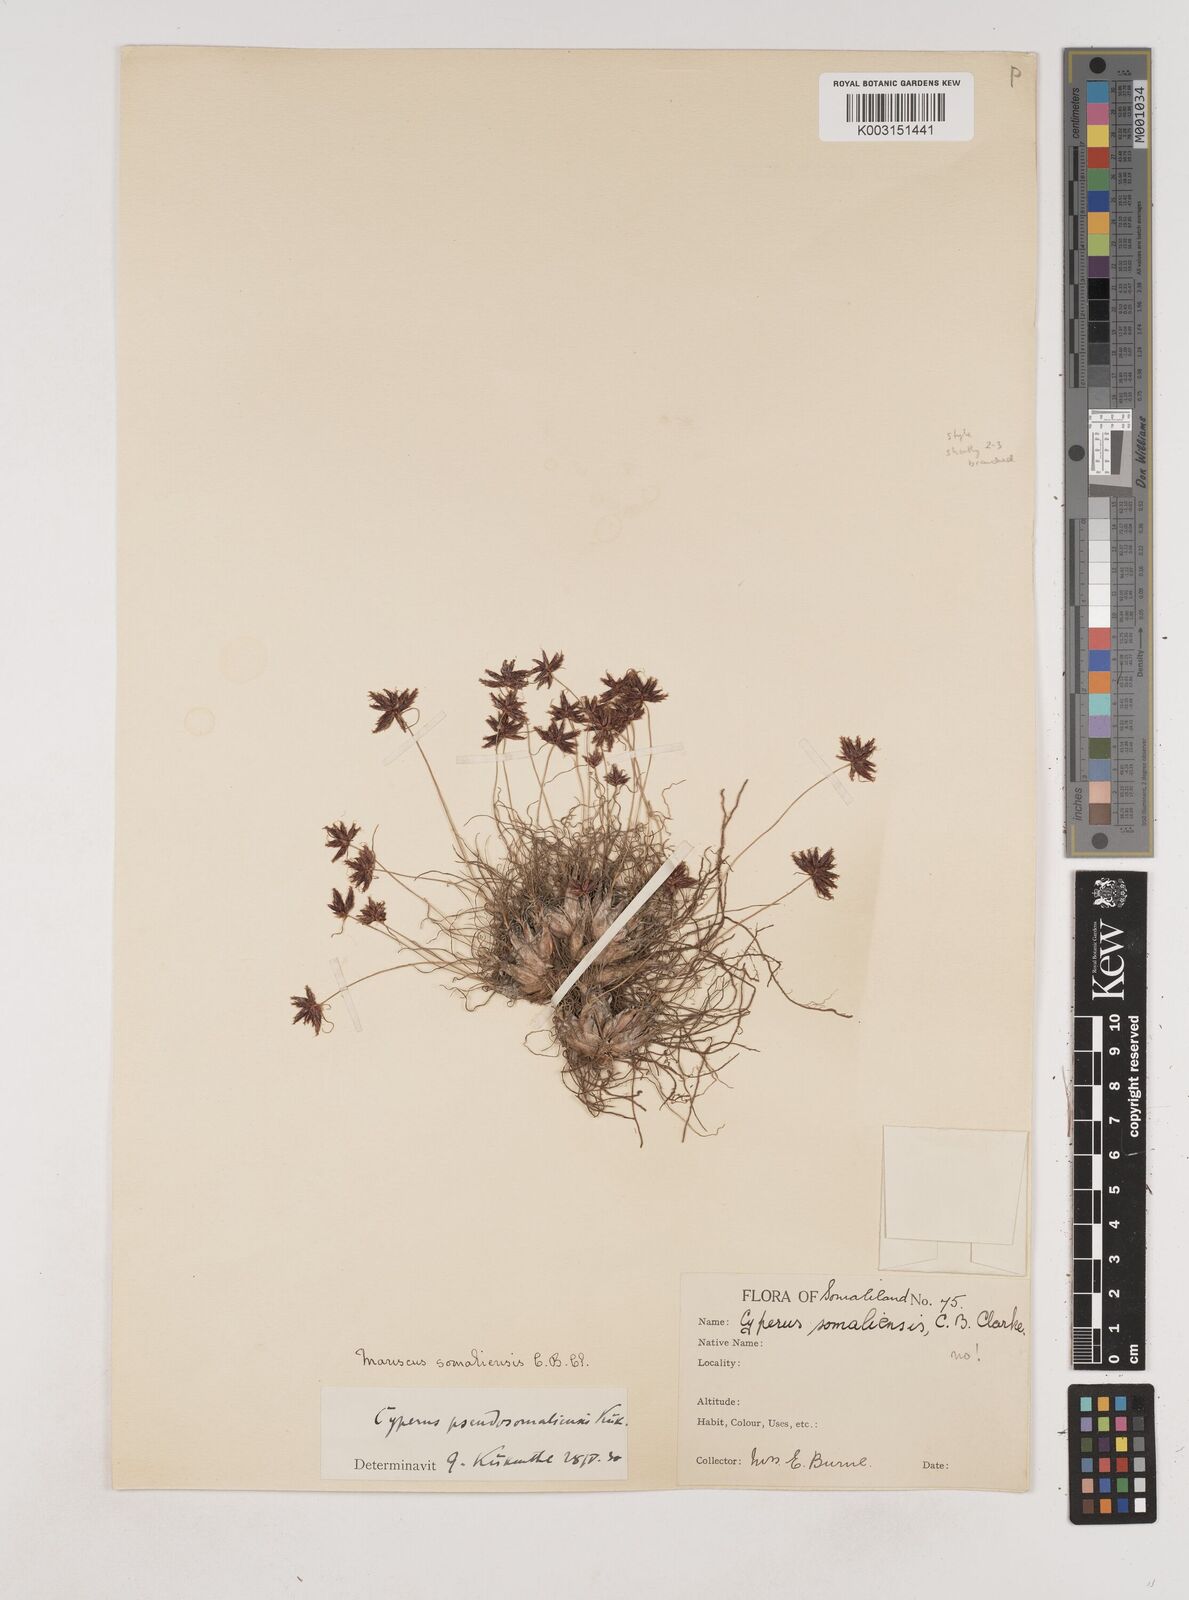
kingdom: Plantae
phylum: Tracheophyta
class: Liliopsida
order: Poales
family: Cyperaceae
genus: Cyperus
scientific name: Cyperus pseudosomaliensis
